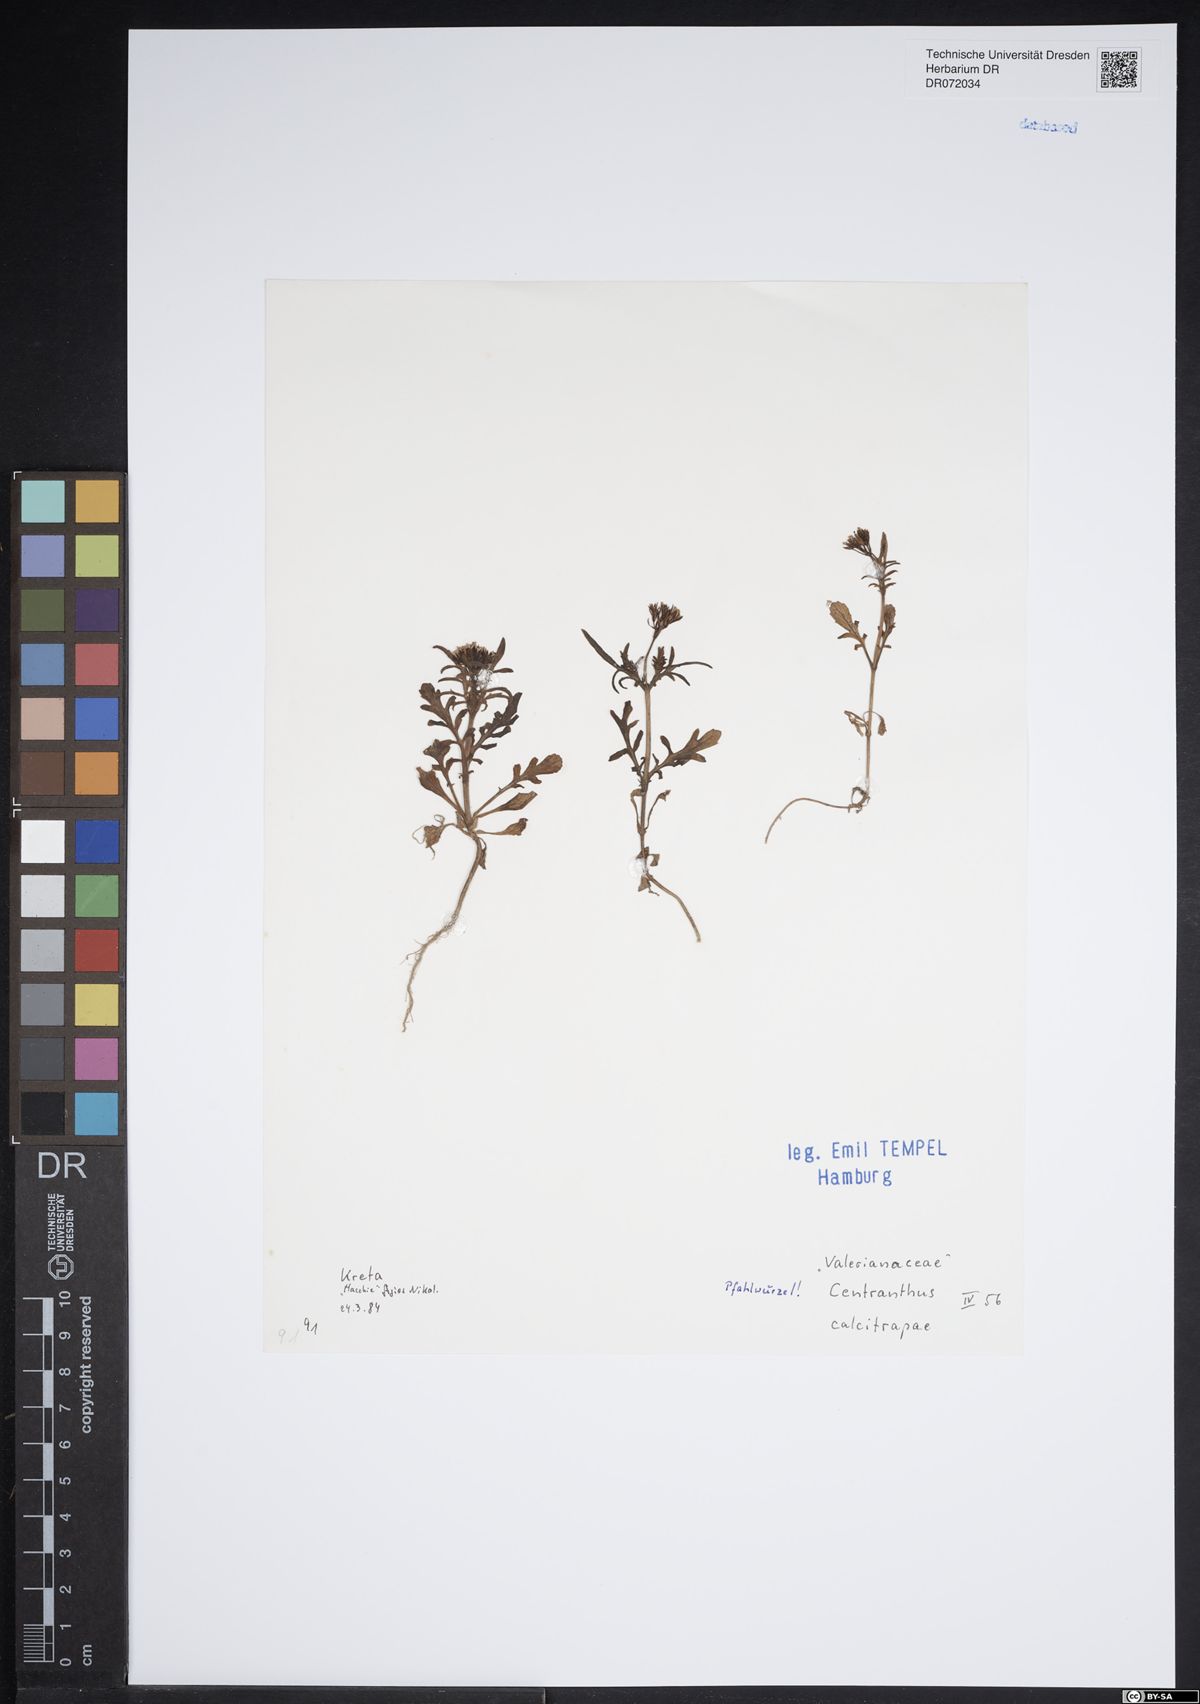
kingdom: Plantae
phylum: Tracheophyta
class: Magnoliopsida
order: Dipsacales
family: Caprifoliaceae
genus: Centranthus
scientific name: Centranthus calcitrapae
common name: Annual valerian
